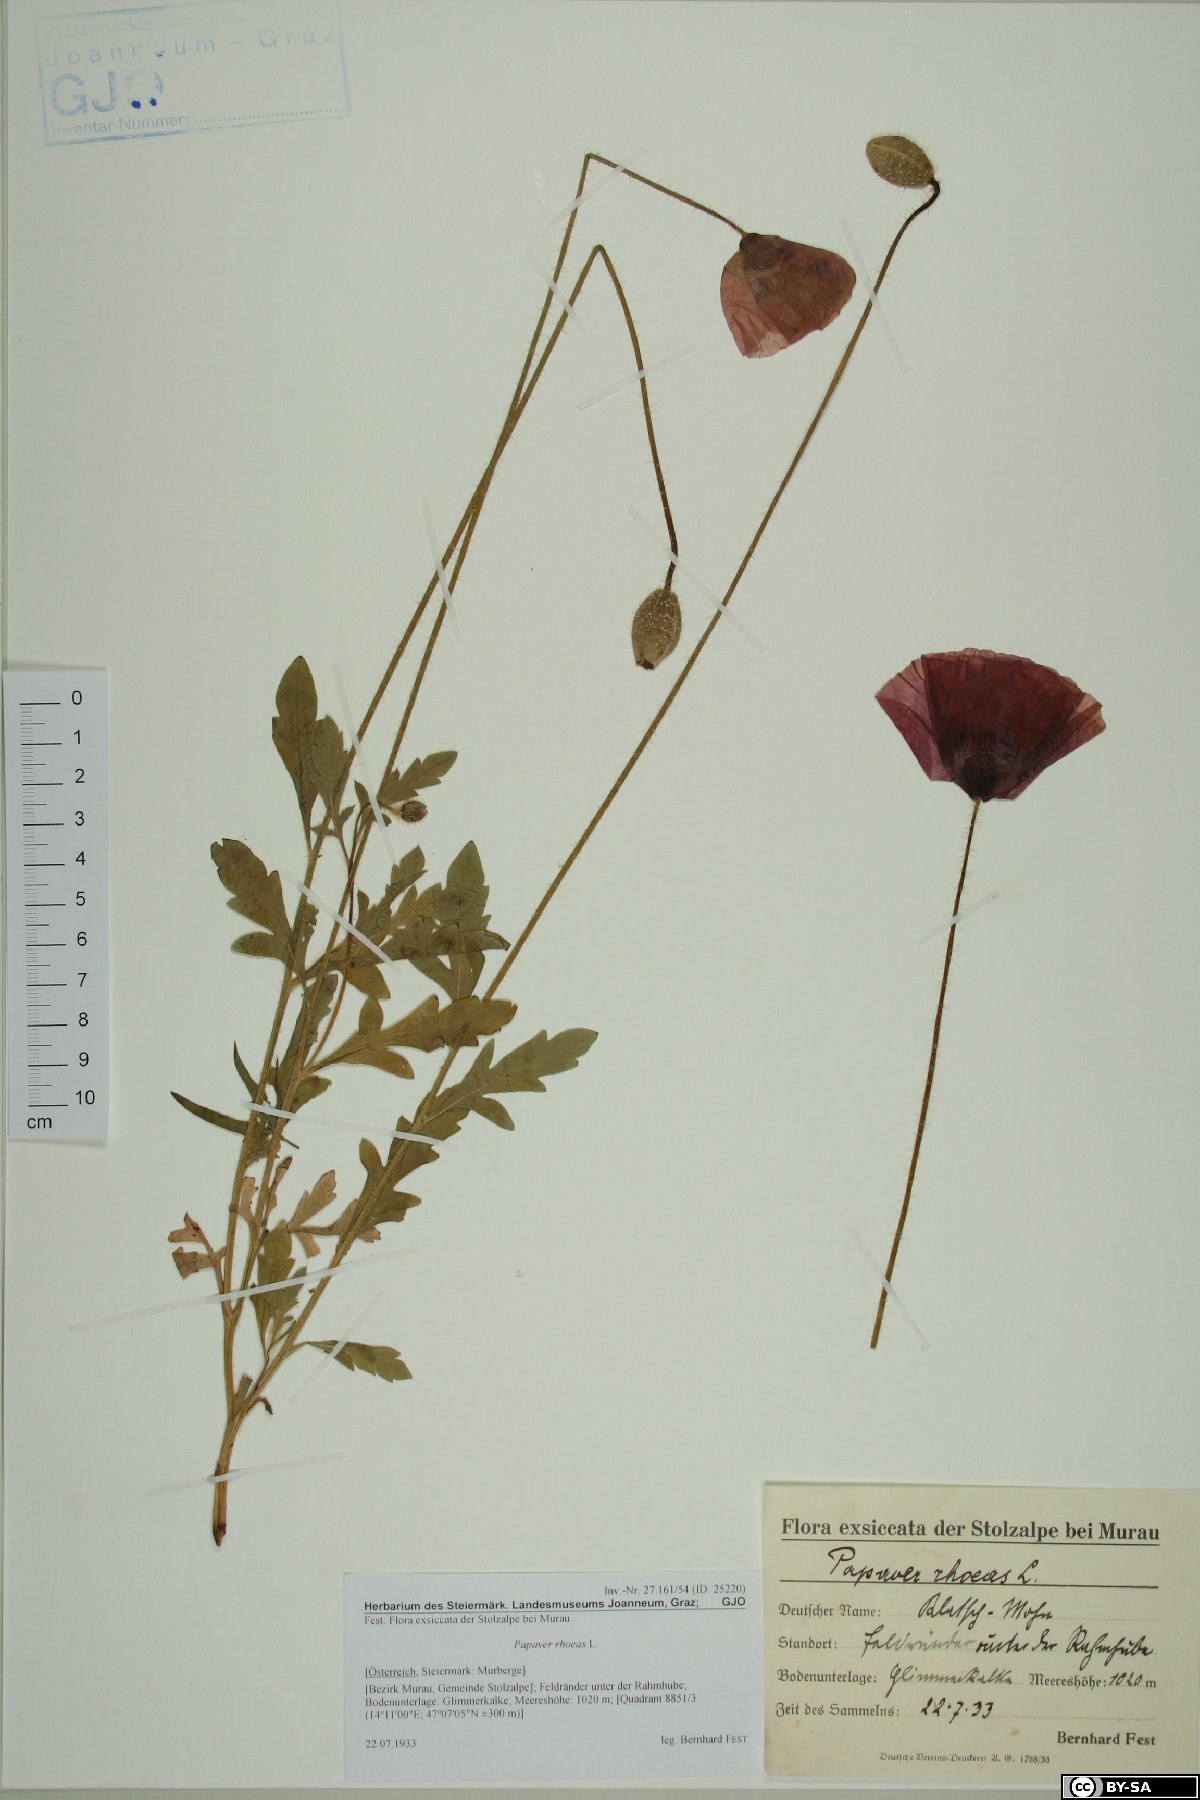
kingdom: Plantae
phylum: Tracheophyta
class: Magnoliopsida
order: Ranunculales
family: Papaveraceae
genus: Papaver
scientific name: Papaver rhoeas
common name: Corn poppy
